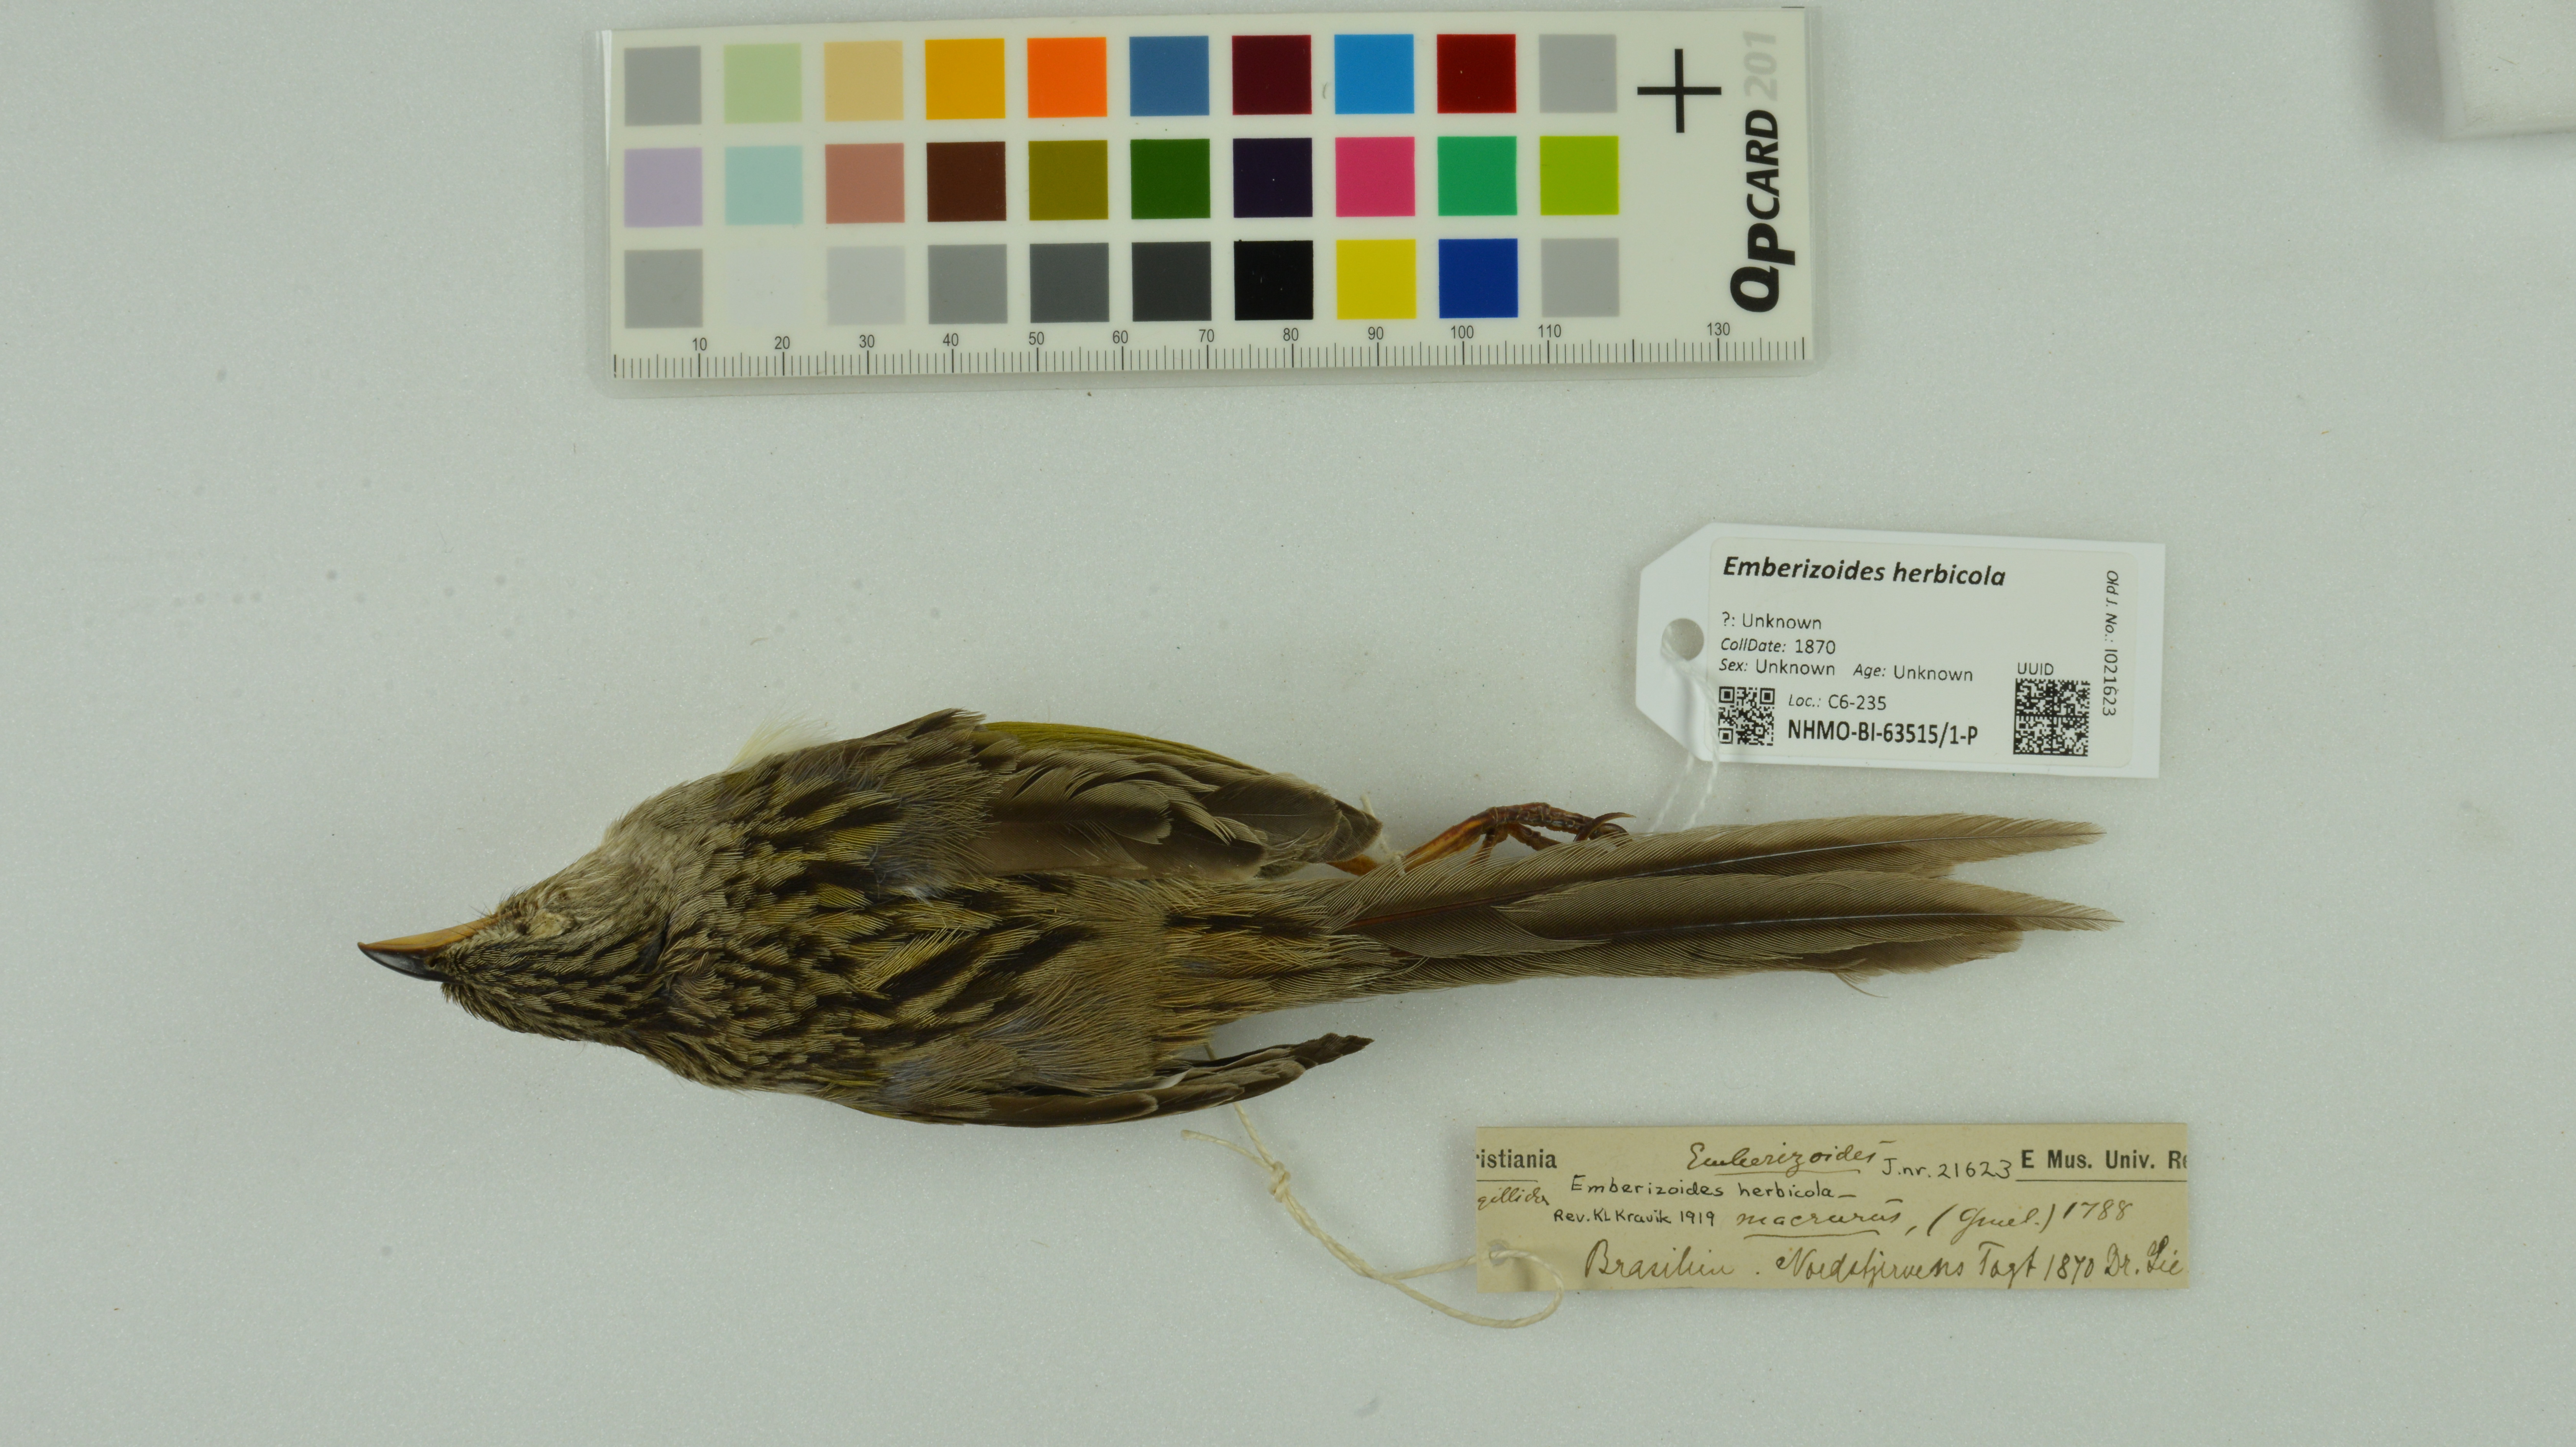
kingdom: Animalia
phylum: Chordata
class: Aves
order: Passeriformes
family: Thraupidae
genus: Emberizoides
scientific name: Emberizoides herbicola
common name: Wedge-tailed grass-finch
